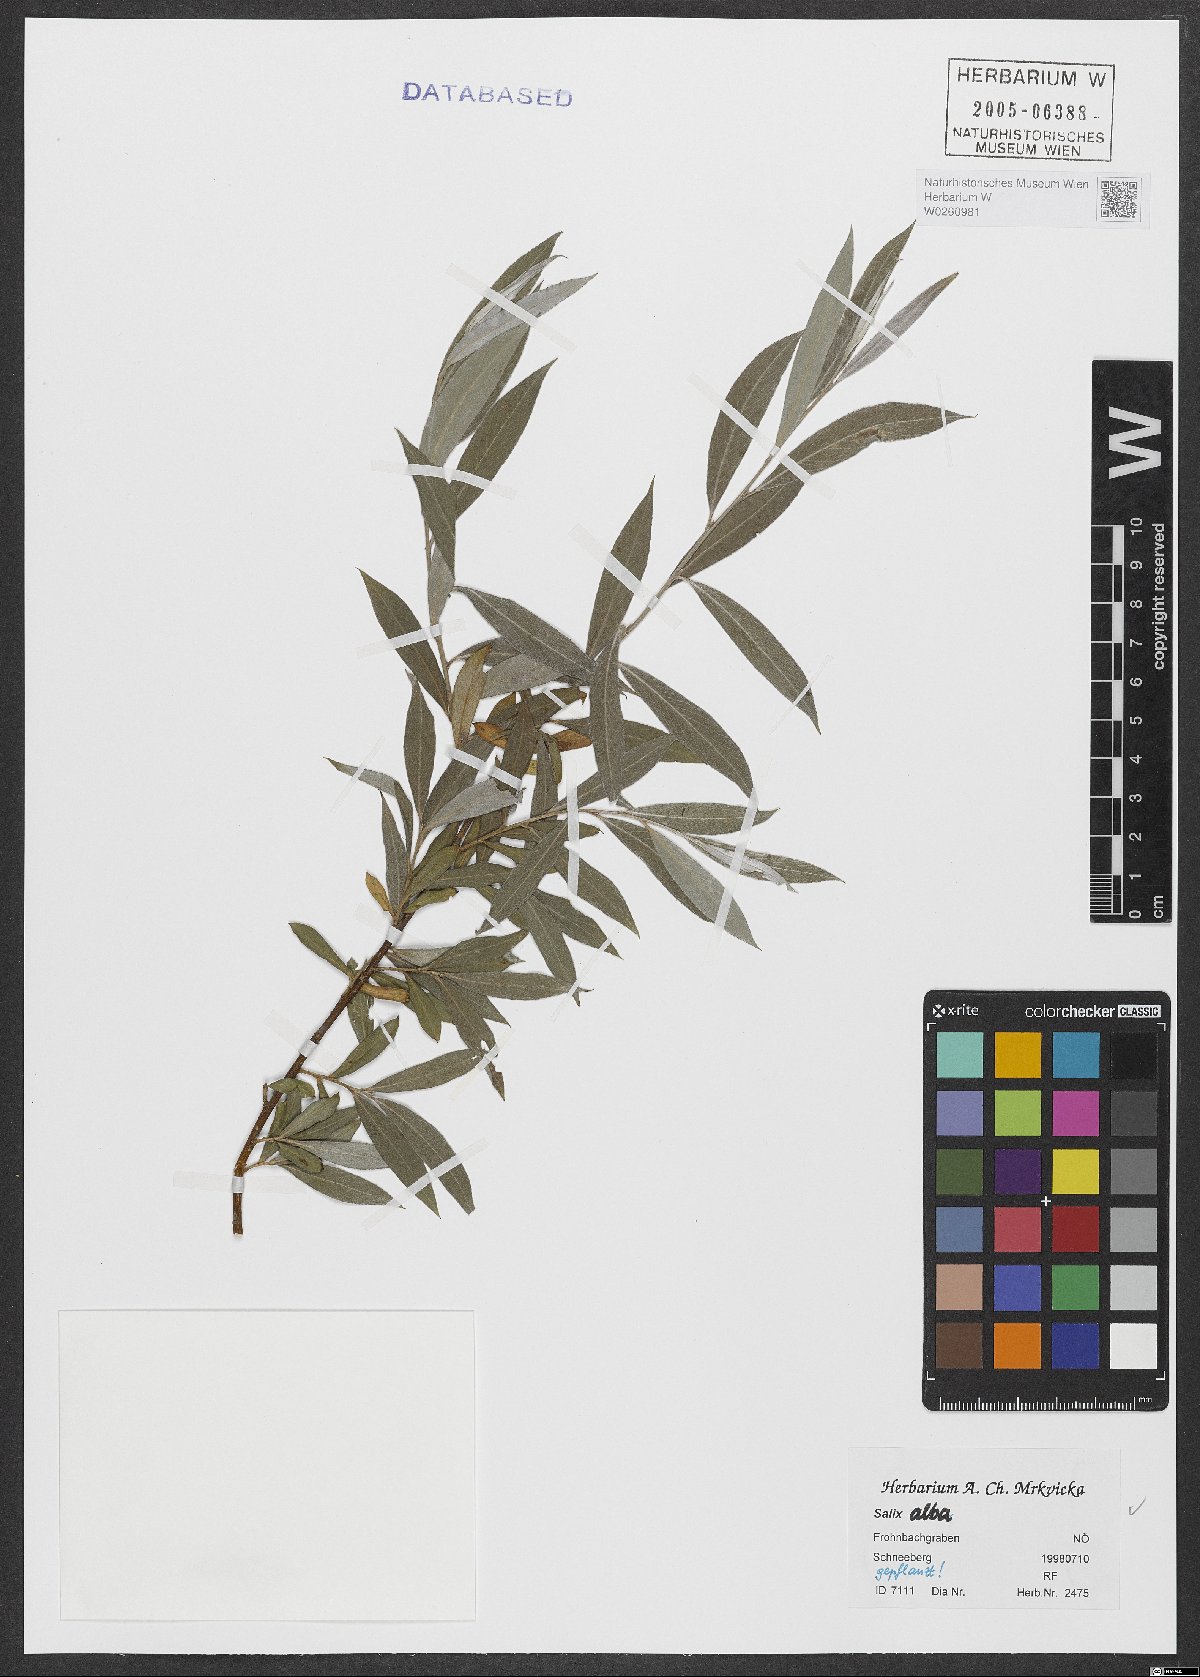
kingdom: Plantae
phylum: Tracheophyta
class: Magnoliopsida
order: Malpighiales
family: Salicaceae
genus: Salix
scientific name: Salix alba
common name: White willow
